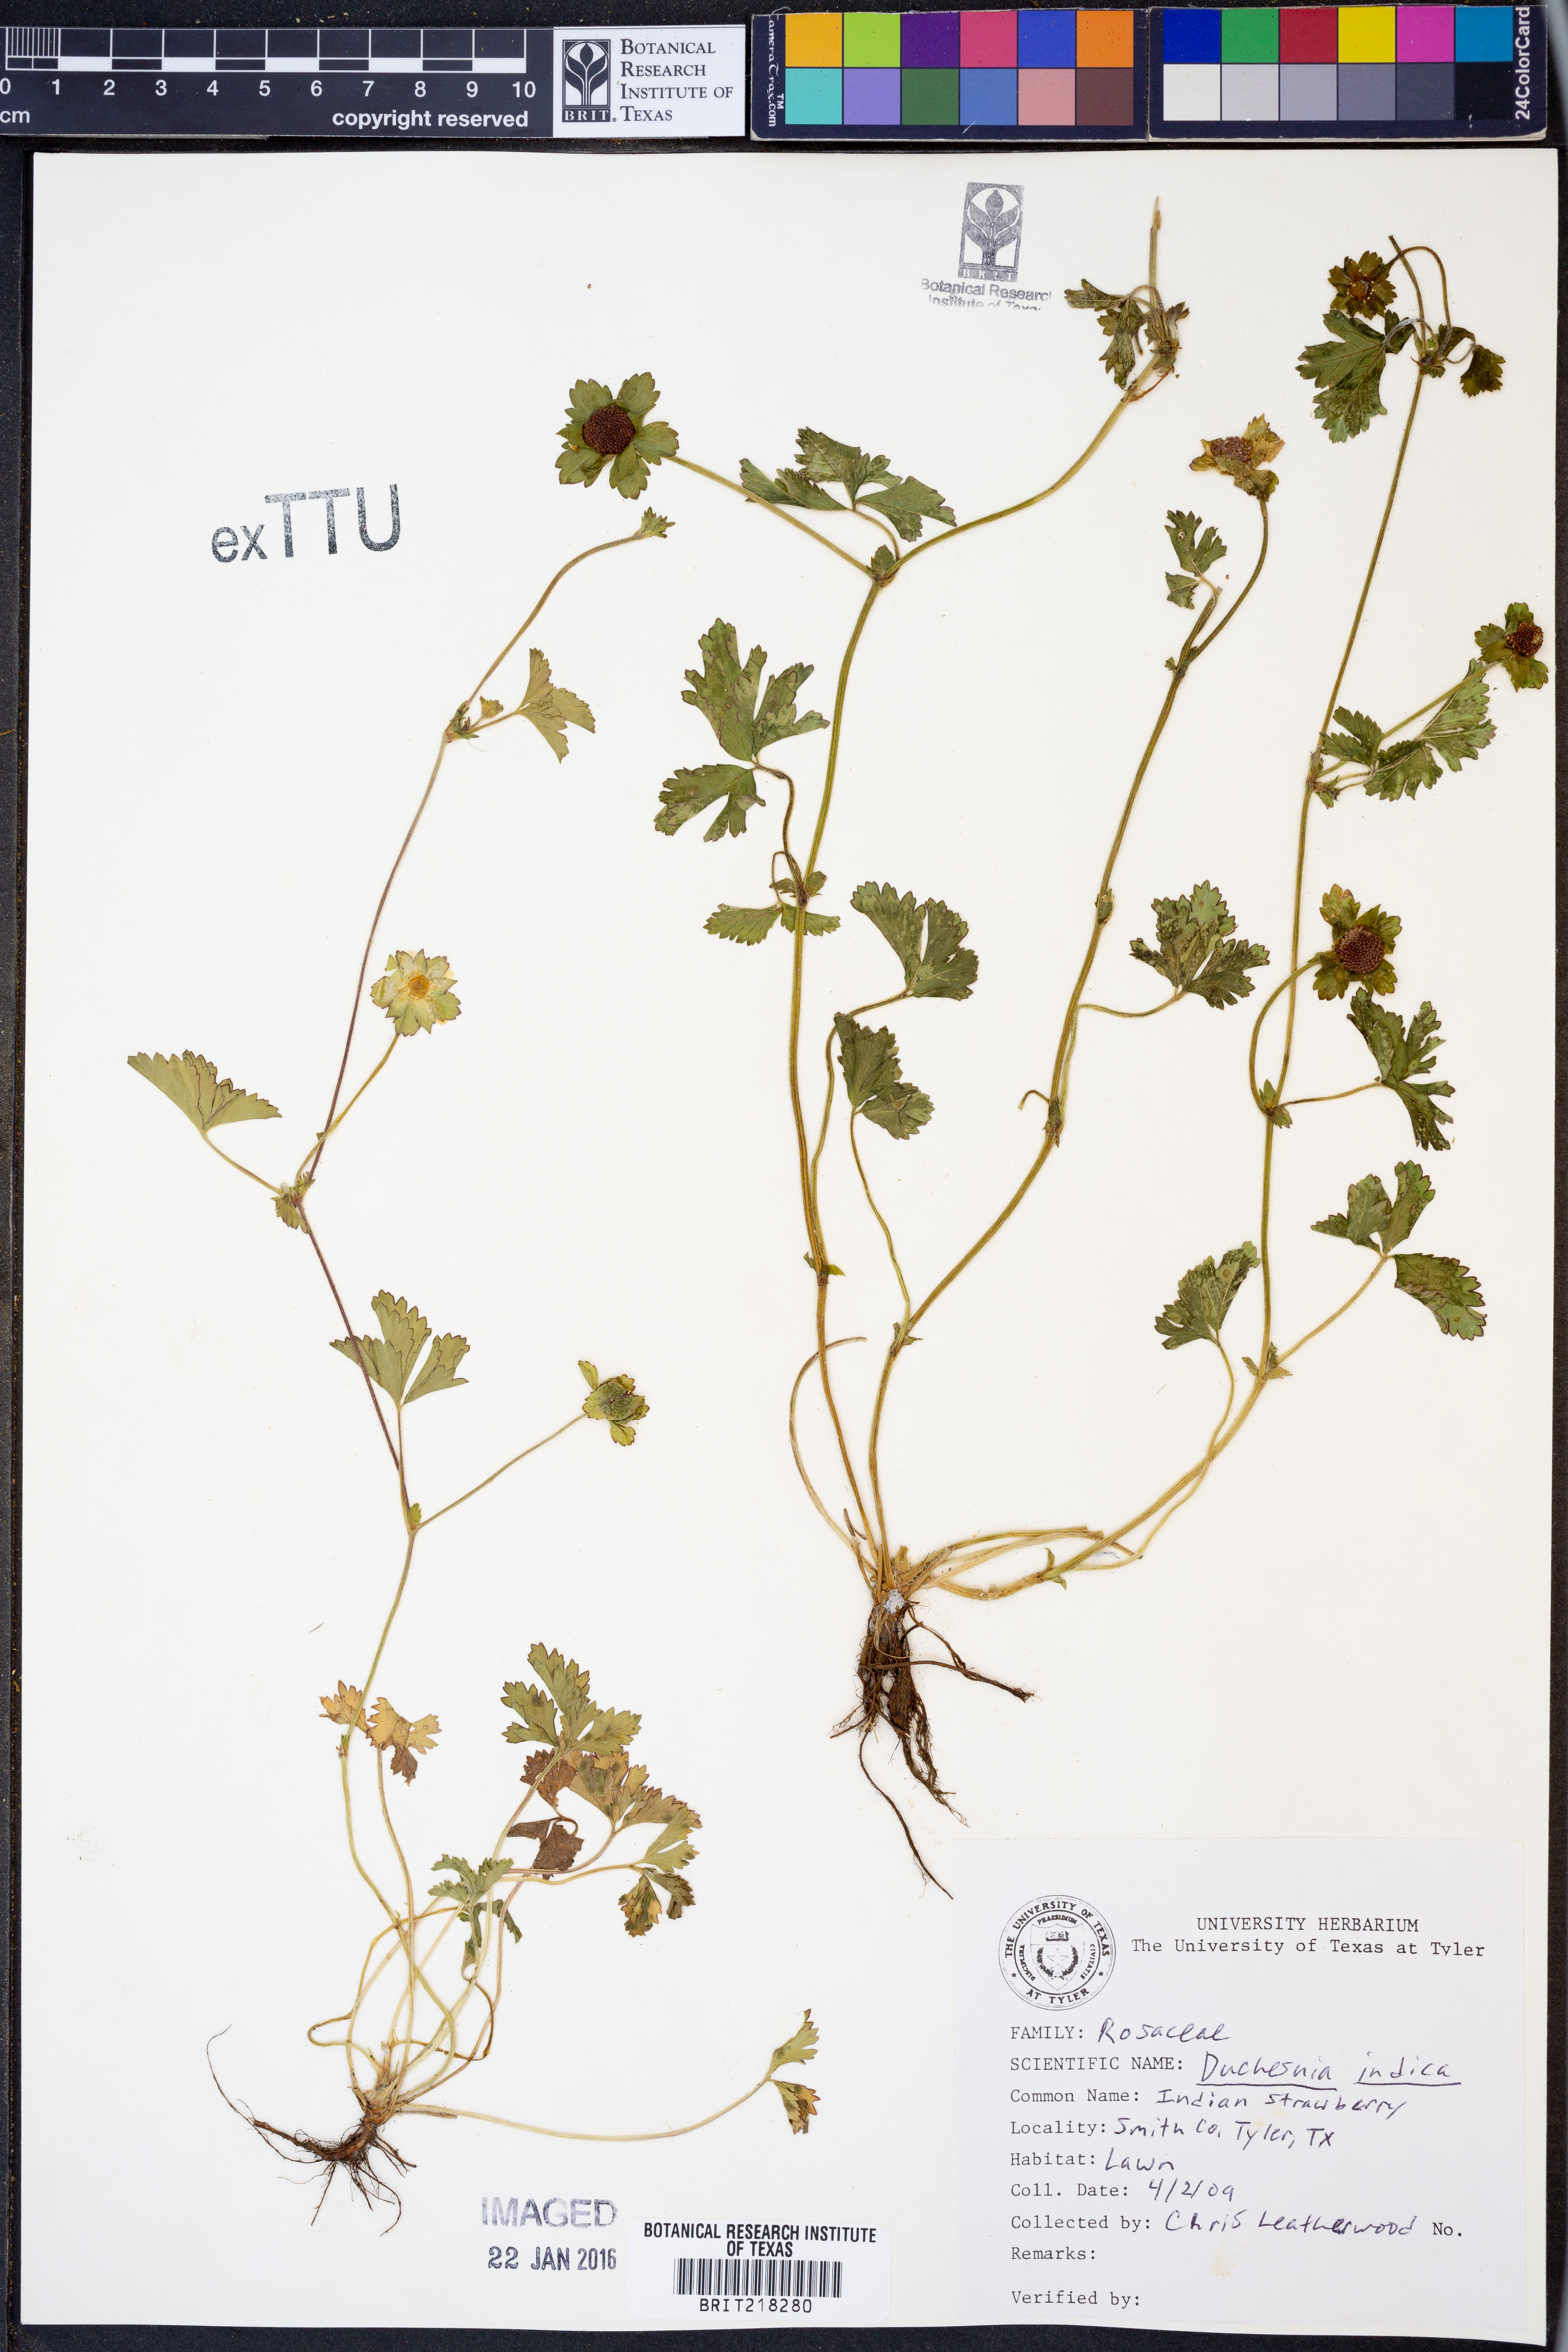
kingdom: Plantae
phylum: Tracheophyta
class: Magnoliopsida
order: Rosales
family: Rosaceae
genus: Potentilla
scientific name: Potentilla indica
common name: Yellow-flowered strawberry
